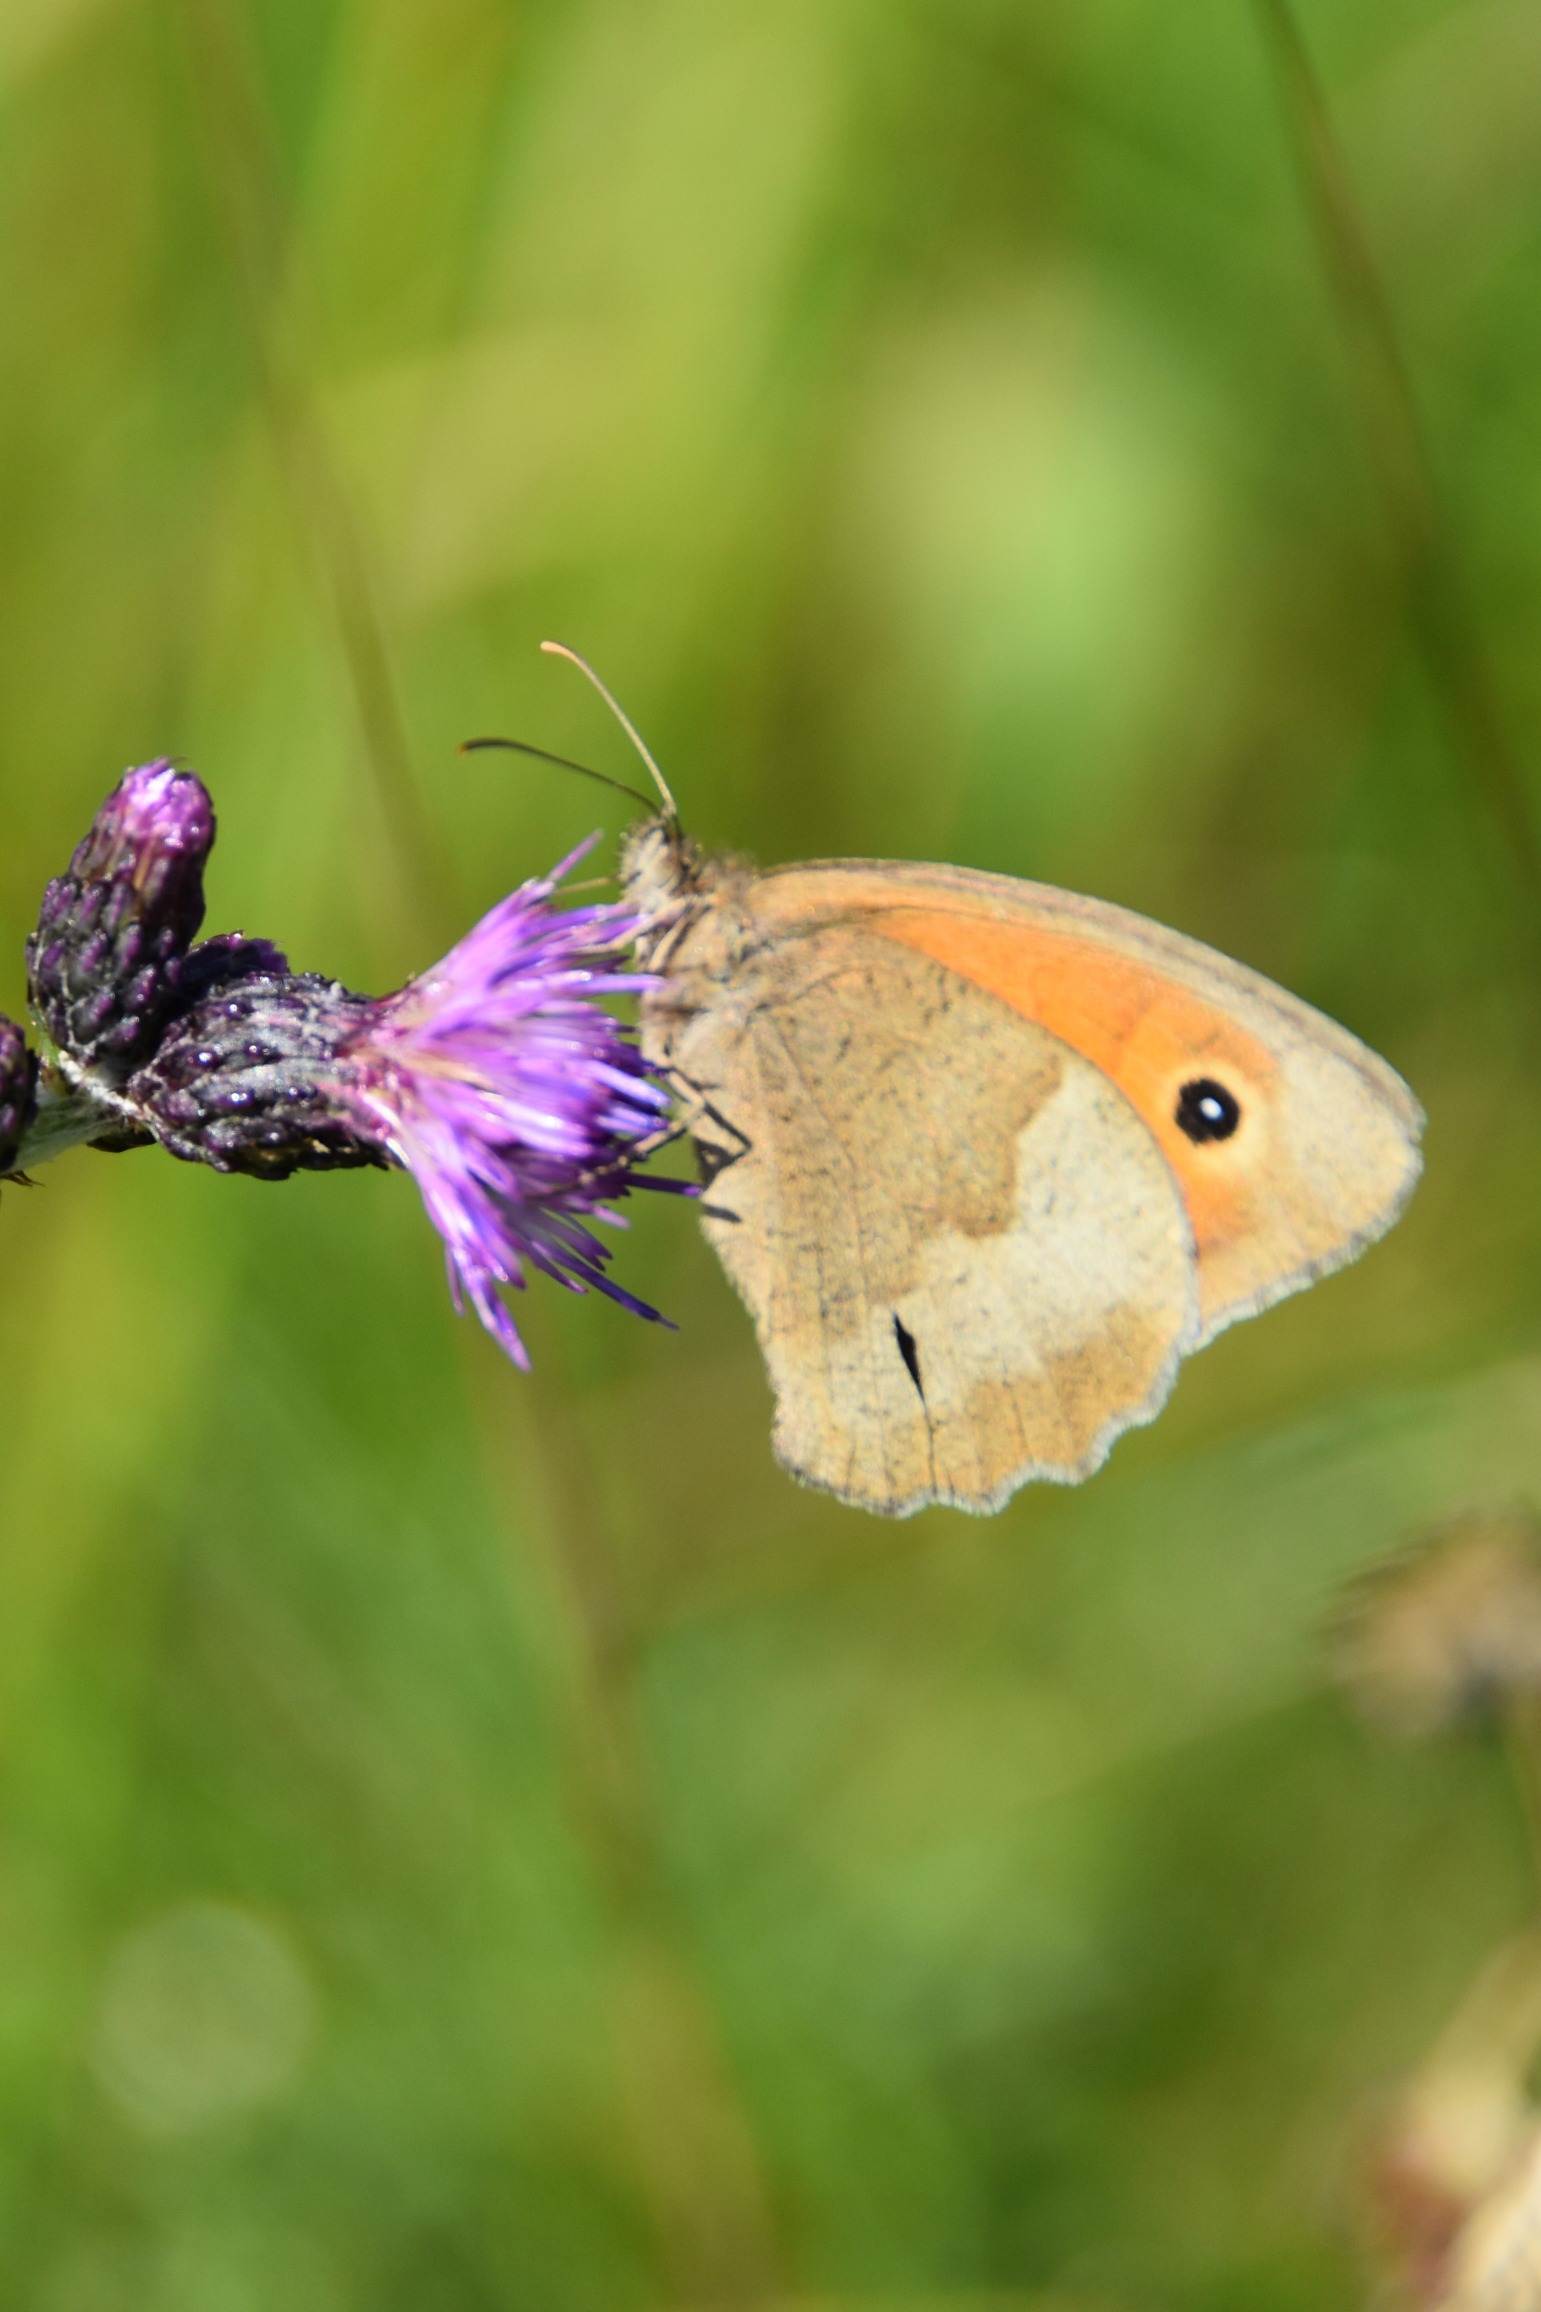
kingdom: Animalia
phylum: Arthropoda
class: Insecta
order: Lepidoptera
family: Nymphalidae
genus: Maniola
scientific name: Maniola jurtina
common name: Græsrandøje
